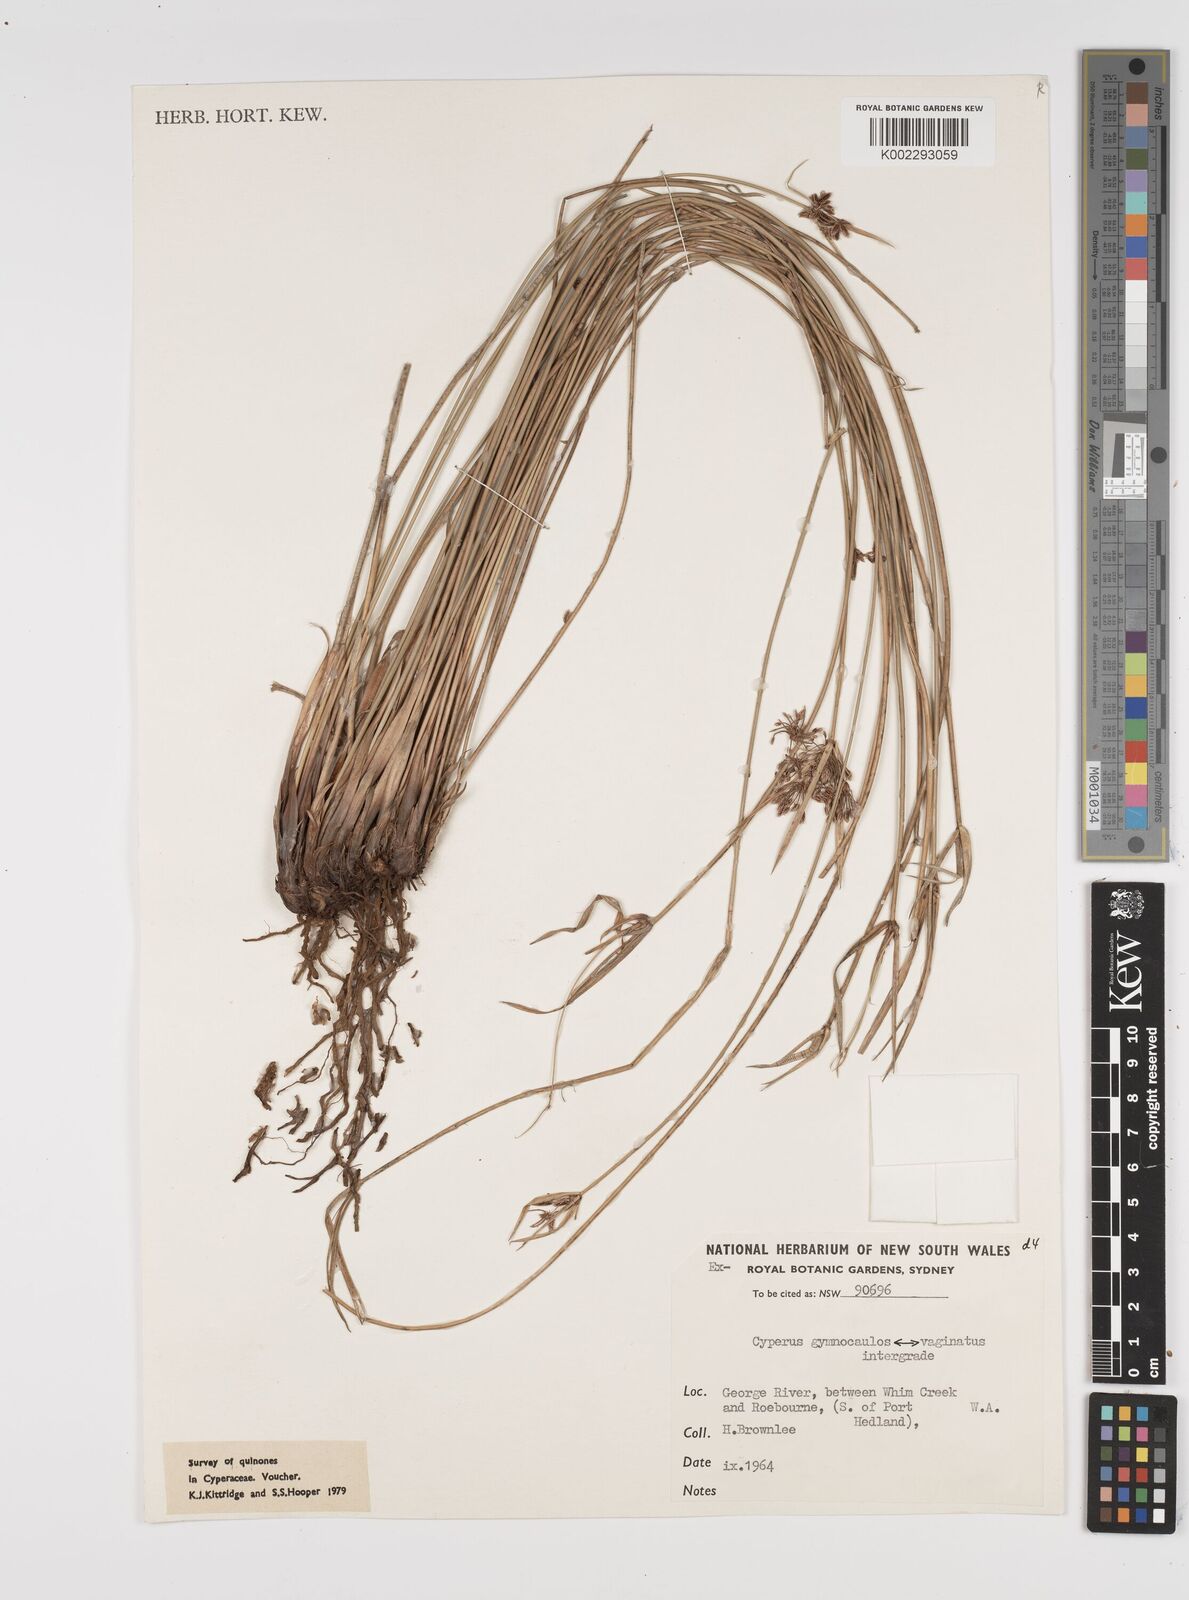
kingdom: Plantae
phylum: Tracheophyta
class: Liliopsida
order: Poales
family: Cyperaceae
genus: Cyperus
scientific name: Cyperus vaginatus
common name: Stiff-leaved flat-sedge
